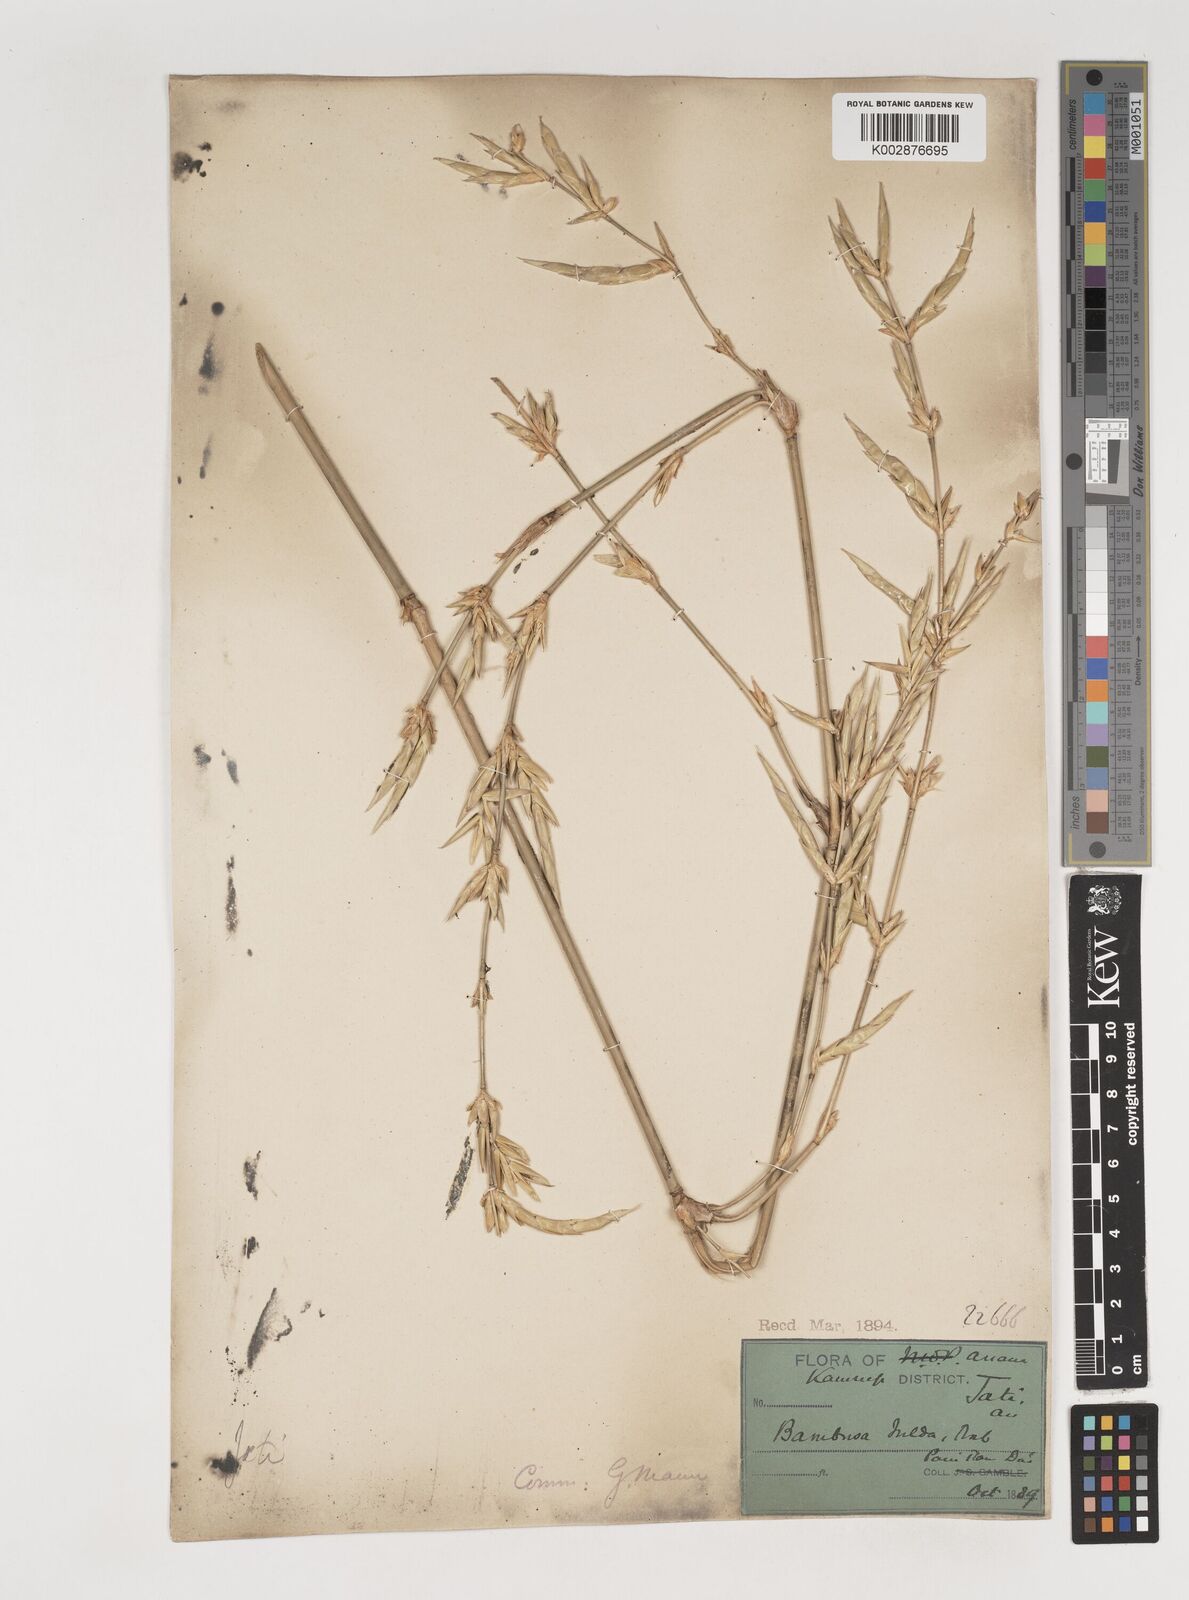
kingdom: Plantae
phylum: Tracheophyta
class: Liliopsida
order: Poales
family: Poaceae
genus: Bambusa
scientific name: Bambusa teres
